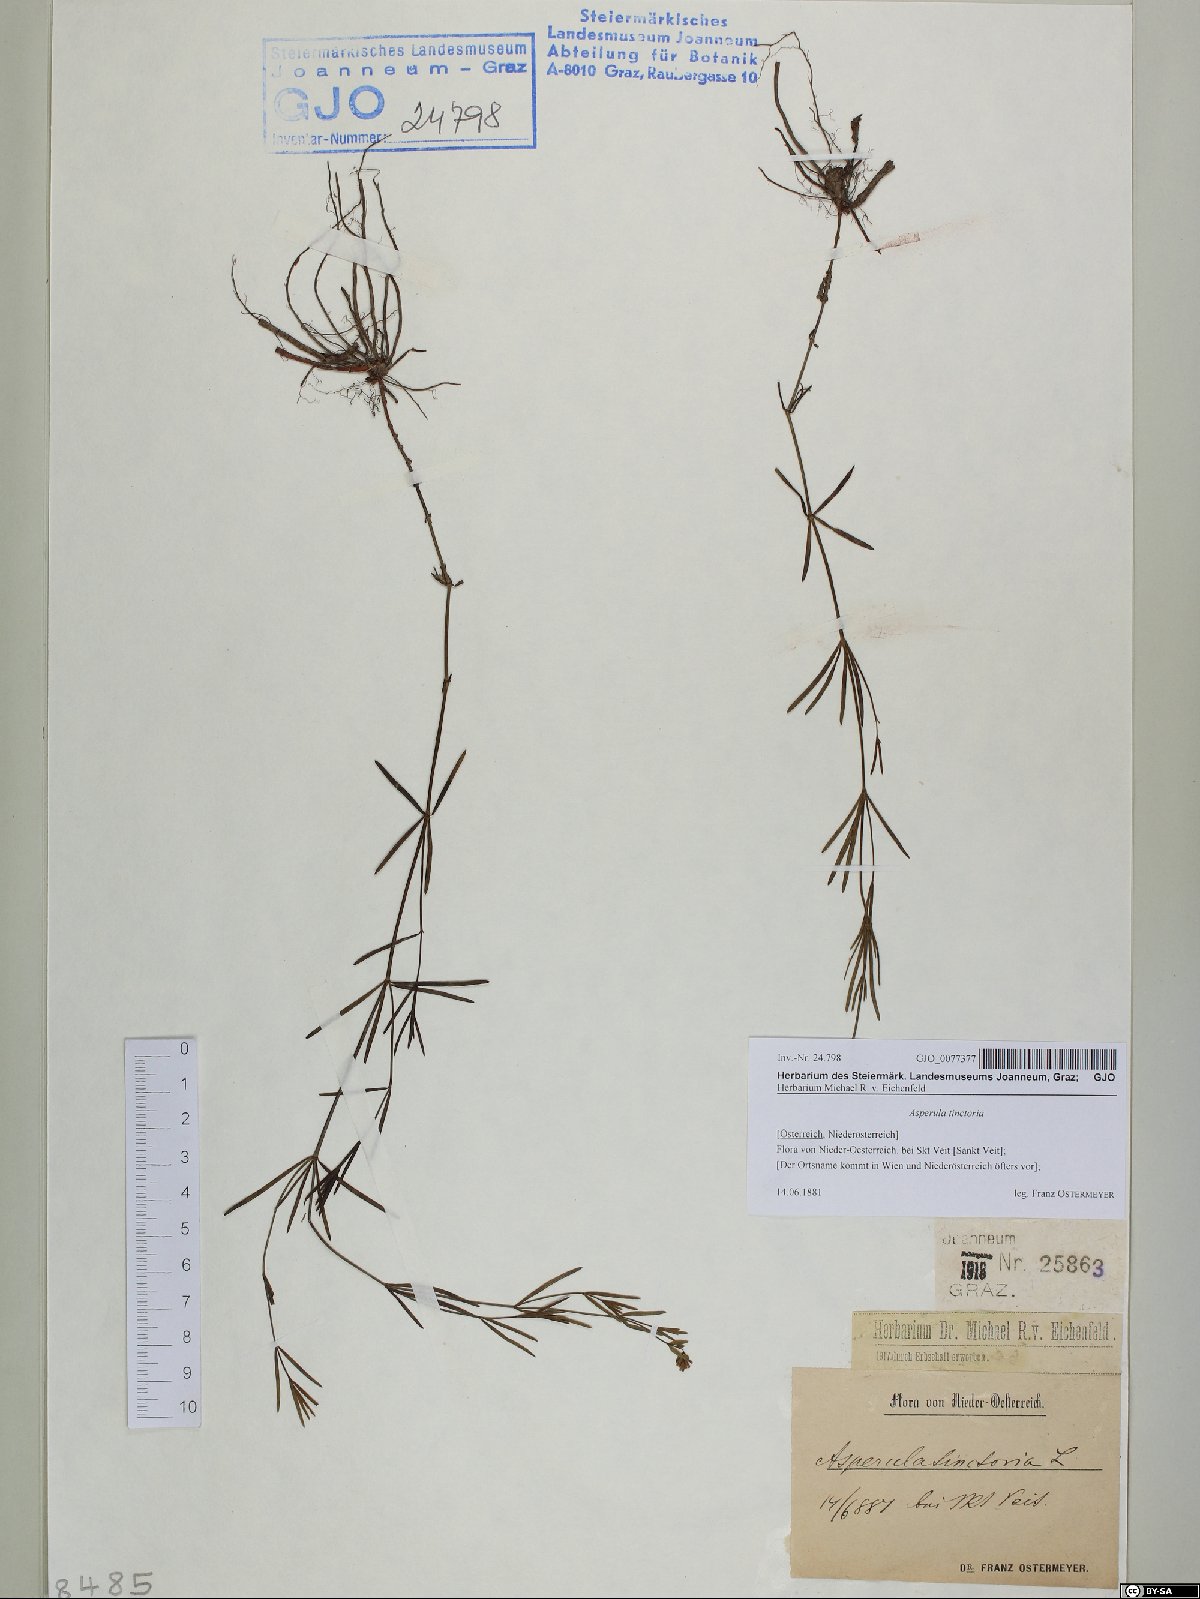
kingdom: Plantae
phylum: Tracheophyta
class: Magnoliopsida
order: Gentianales
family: Rubiaceae
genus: Asperula
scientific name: Asperula tinctoria
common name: Dyer's woodruff
